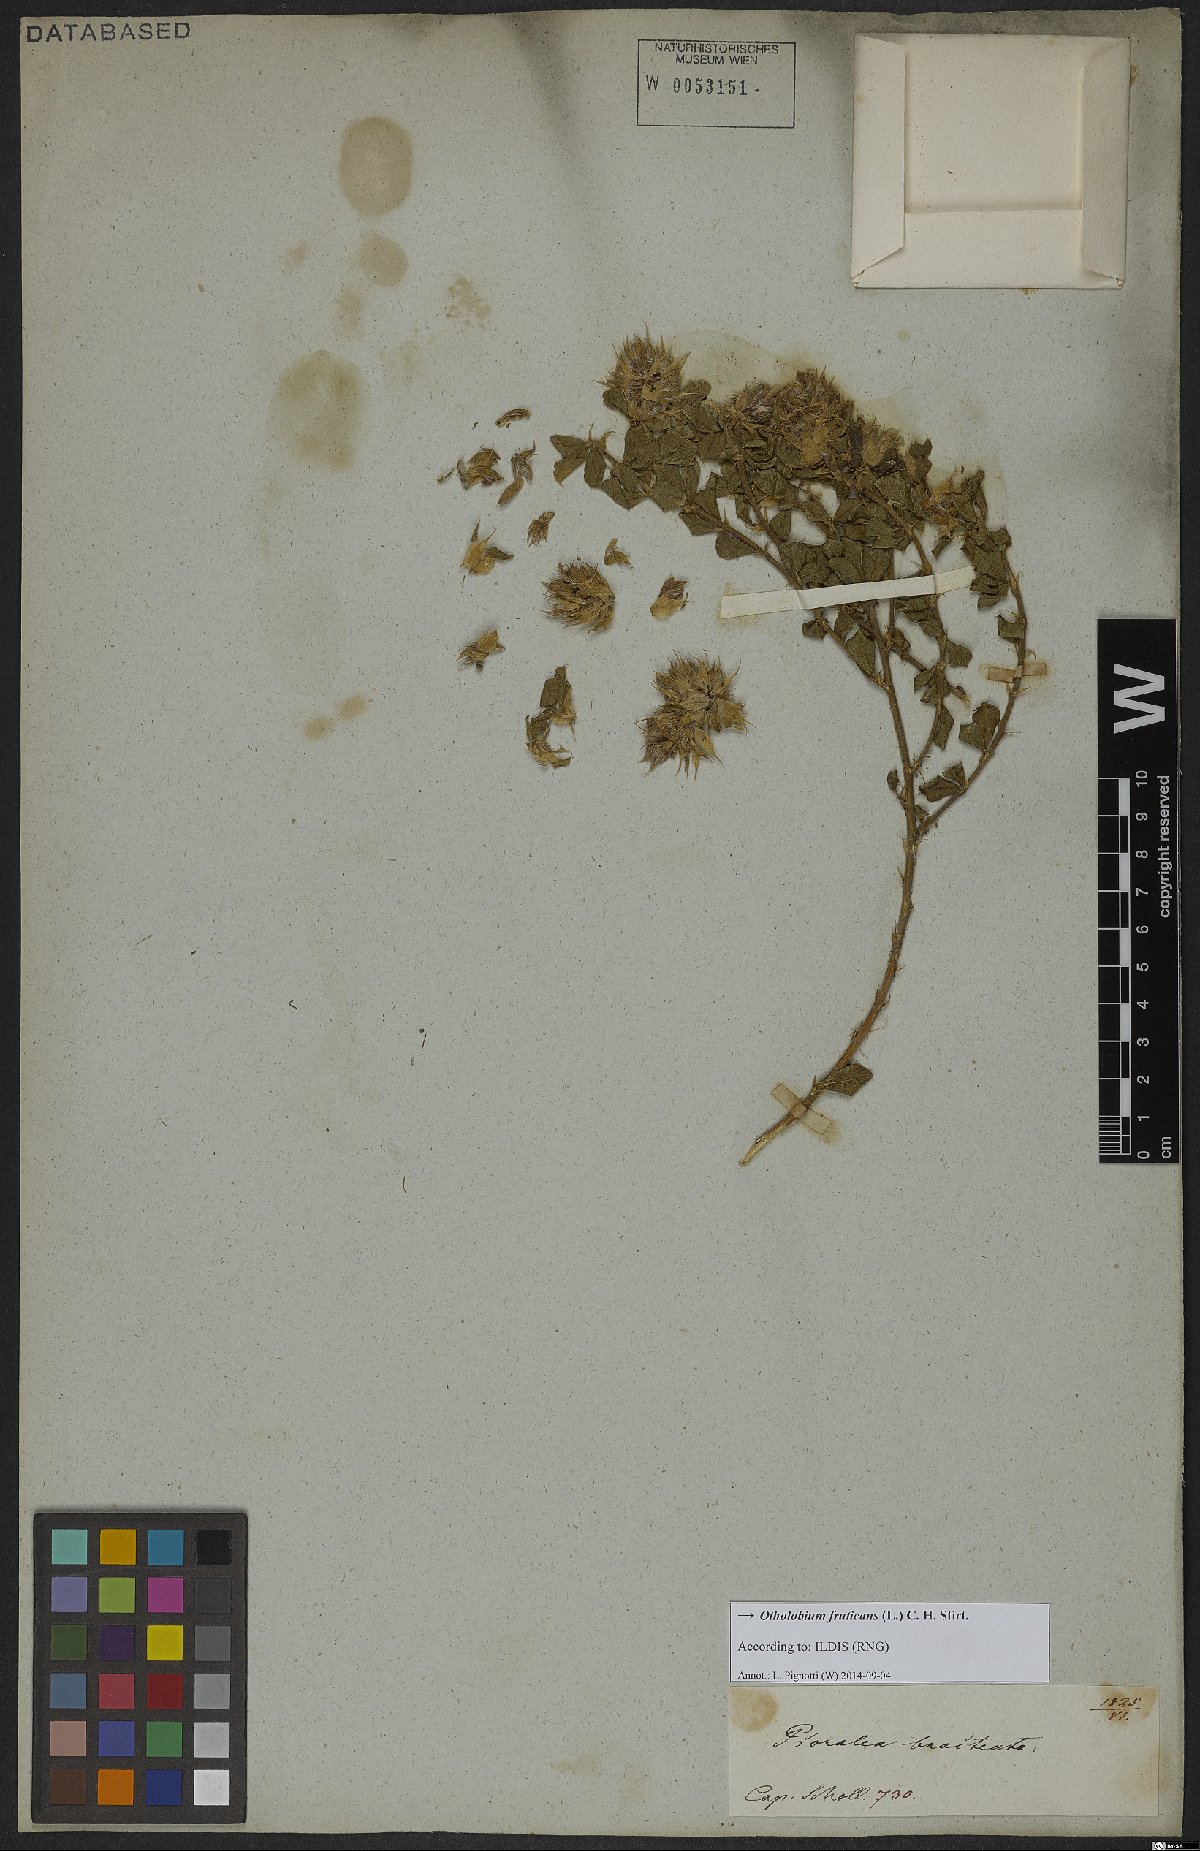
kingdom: Plantae
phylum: Tracheophyta
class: Magnoliopsida
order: Fabales
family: Fabaceae
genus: Psoralea
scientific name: Psoralea fruticans
